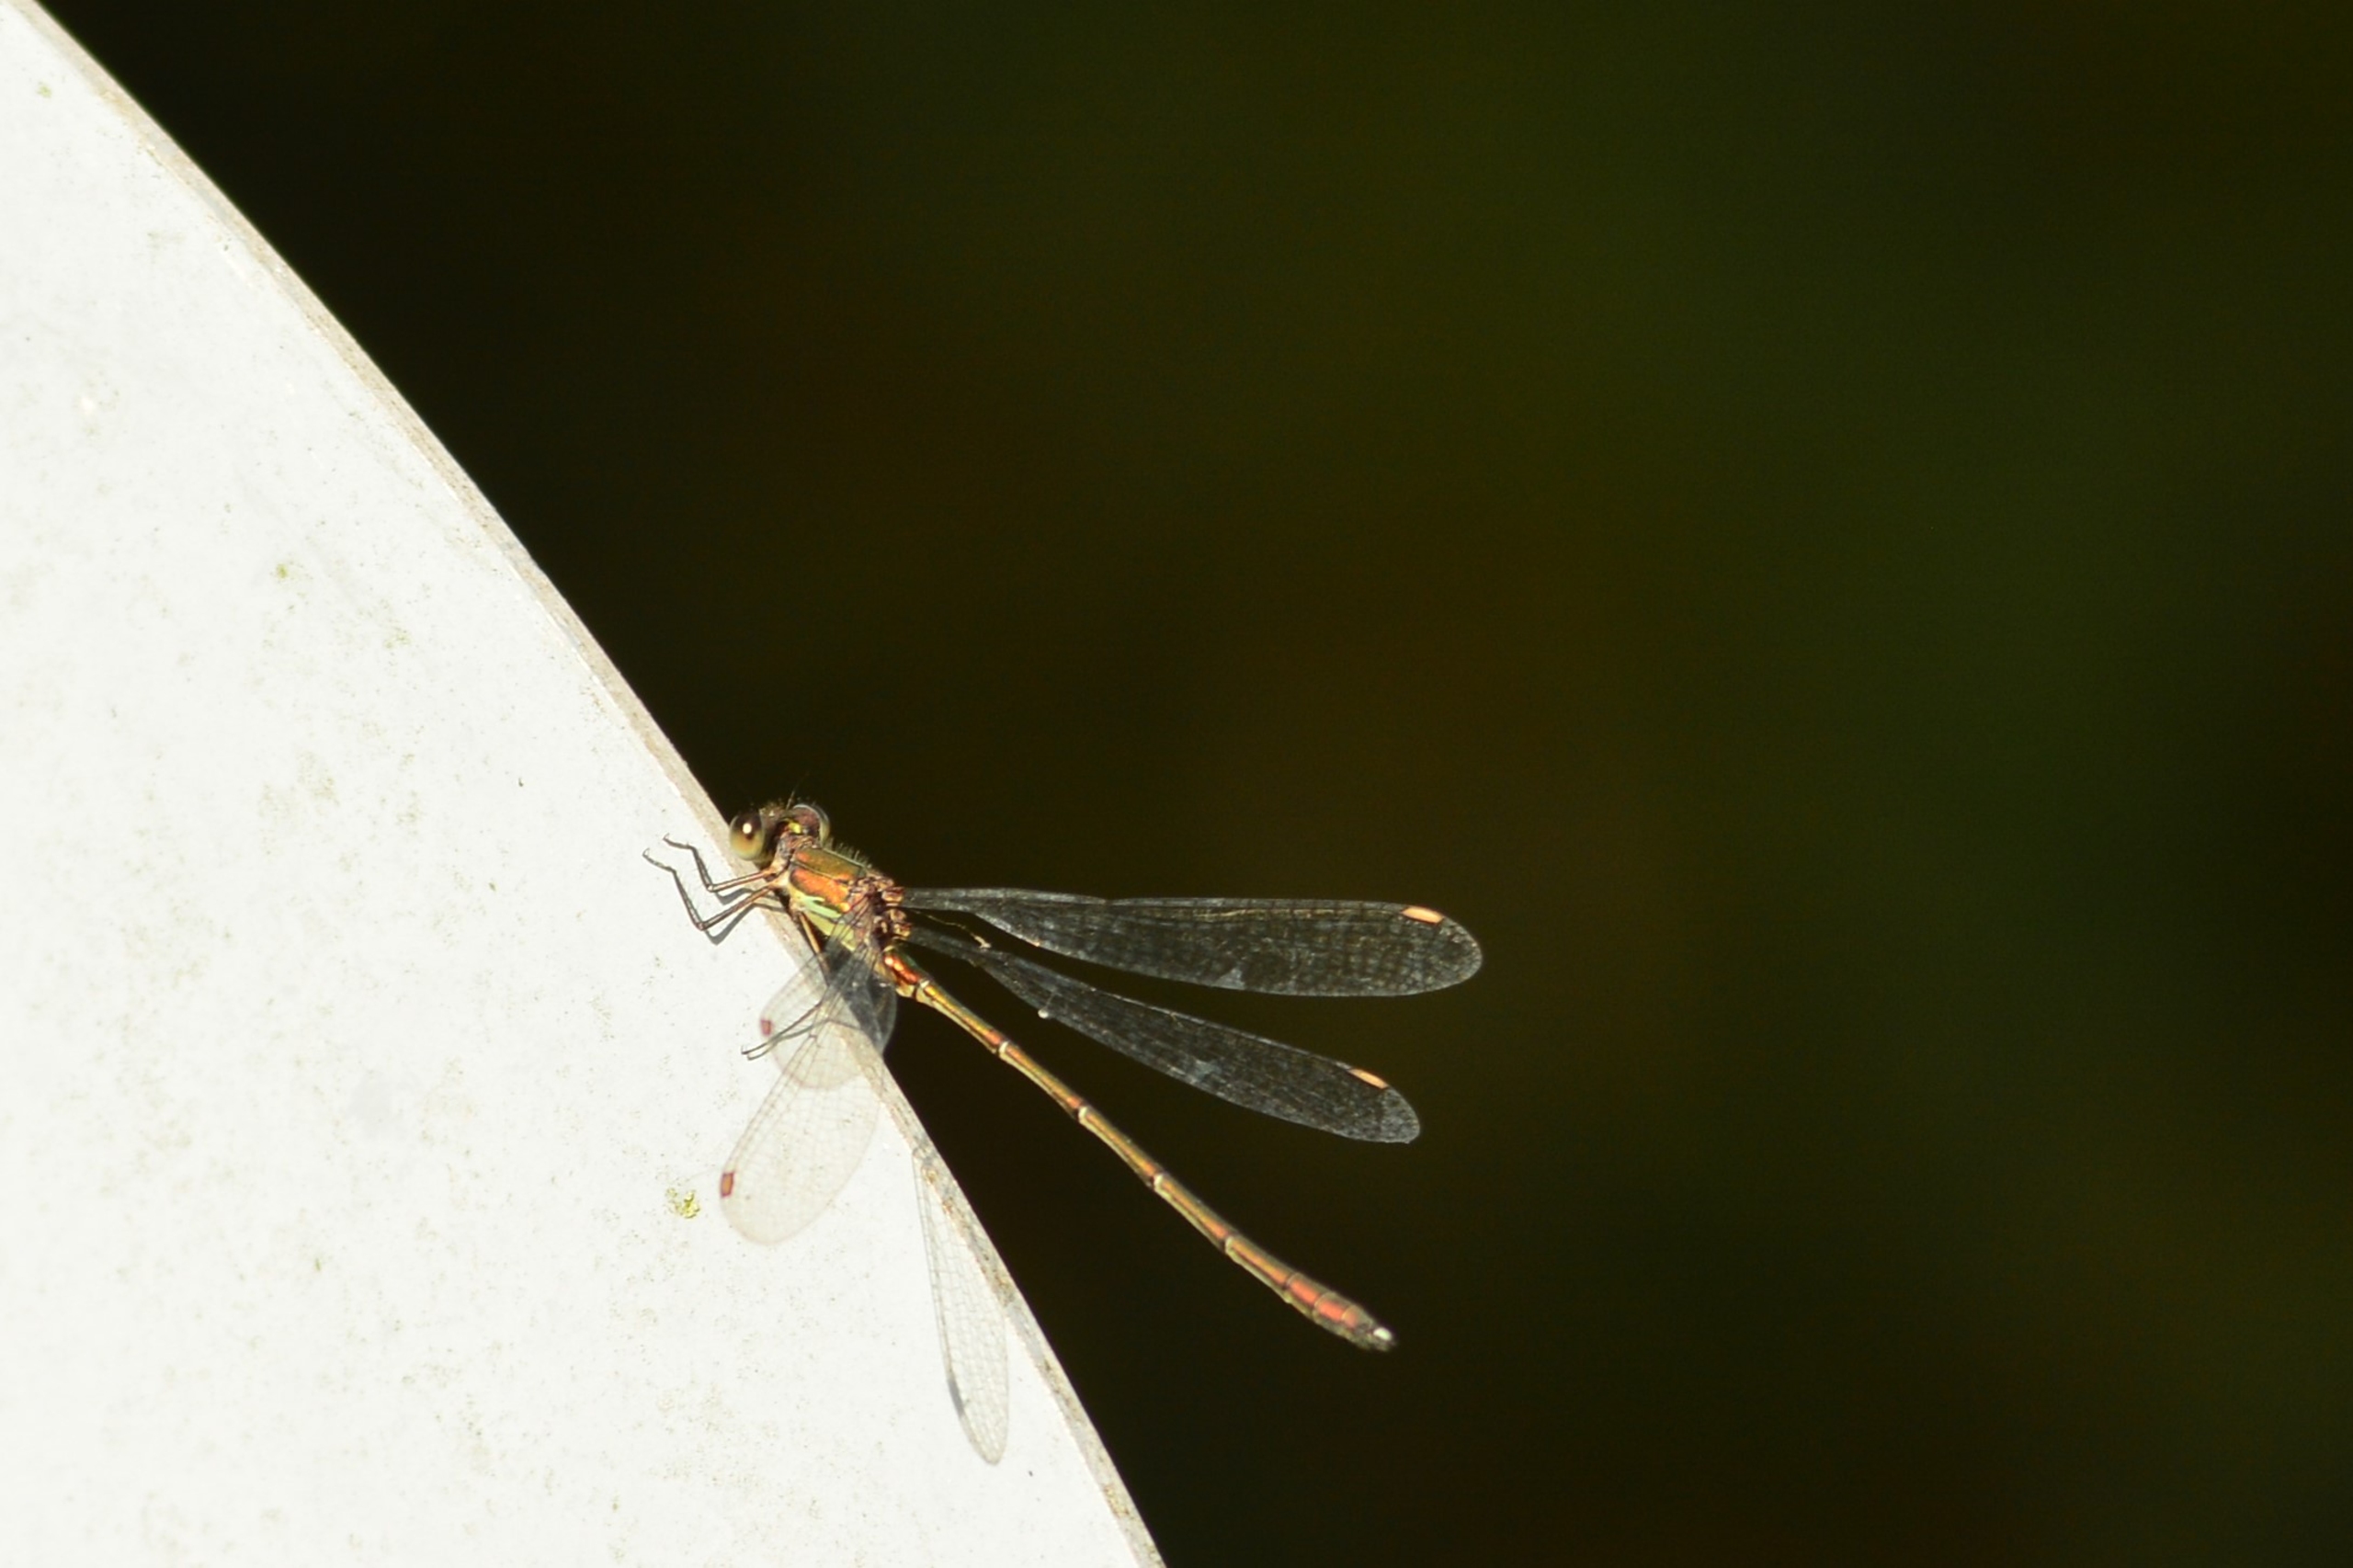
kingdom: Animalia
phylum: Arthropoda
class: Insecta
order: Odonata
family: Lestidae
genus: Chalcolestes
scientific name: Chalcolestes viridis
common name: Grøn kobbervandnymfe
